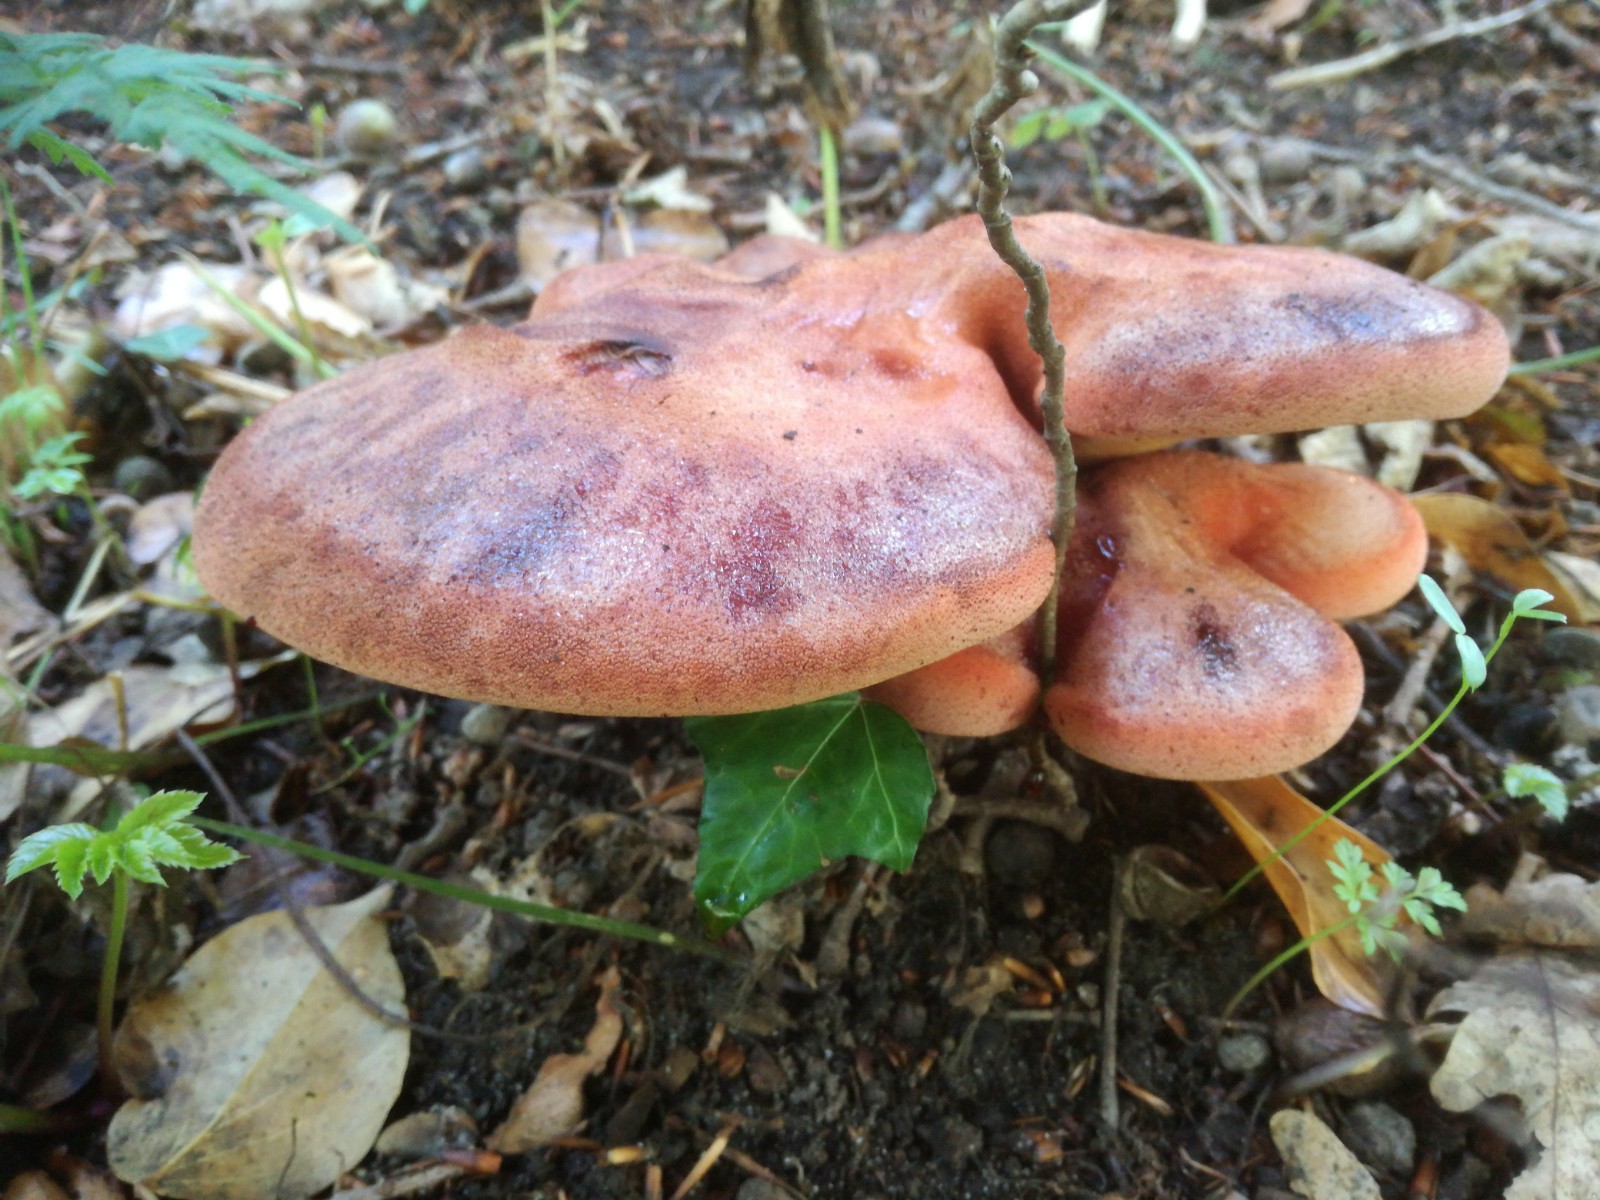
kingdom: Fungi
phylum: Basidiomycota
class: Agaricomycetes
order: Agaricales
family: Fistulinaceae
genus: Fistulina
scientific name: Fistulina hepatica
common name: oksetunge
